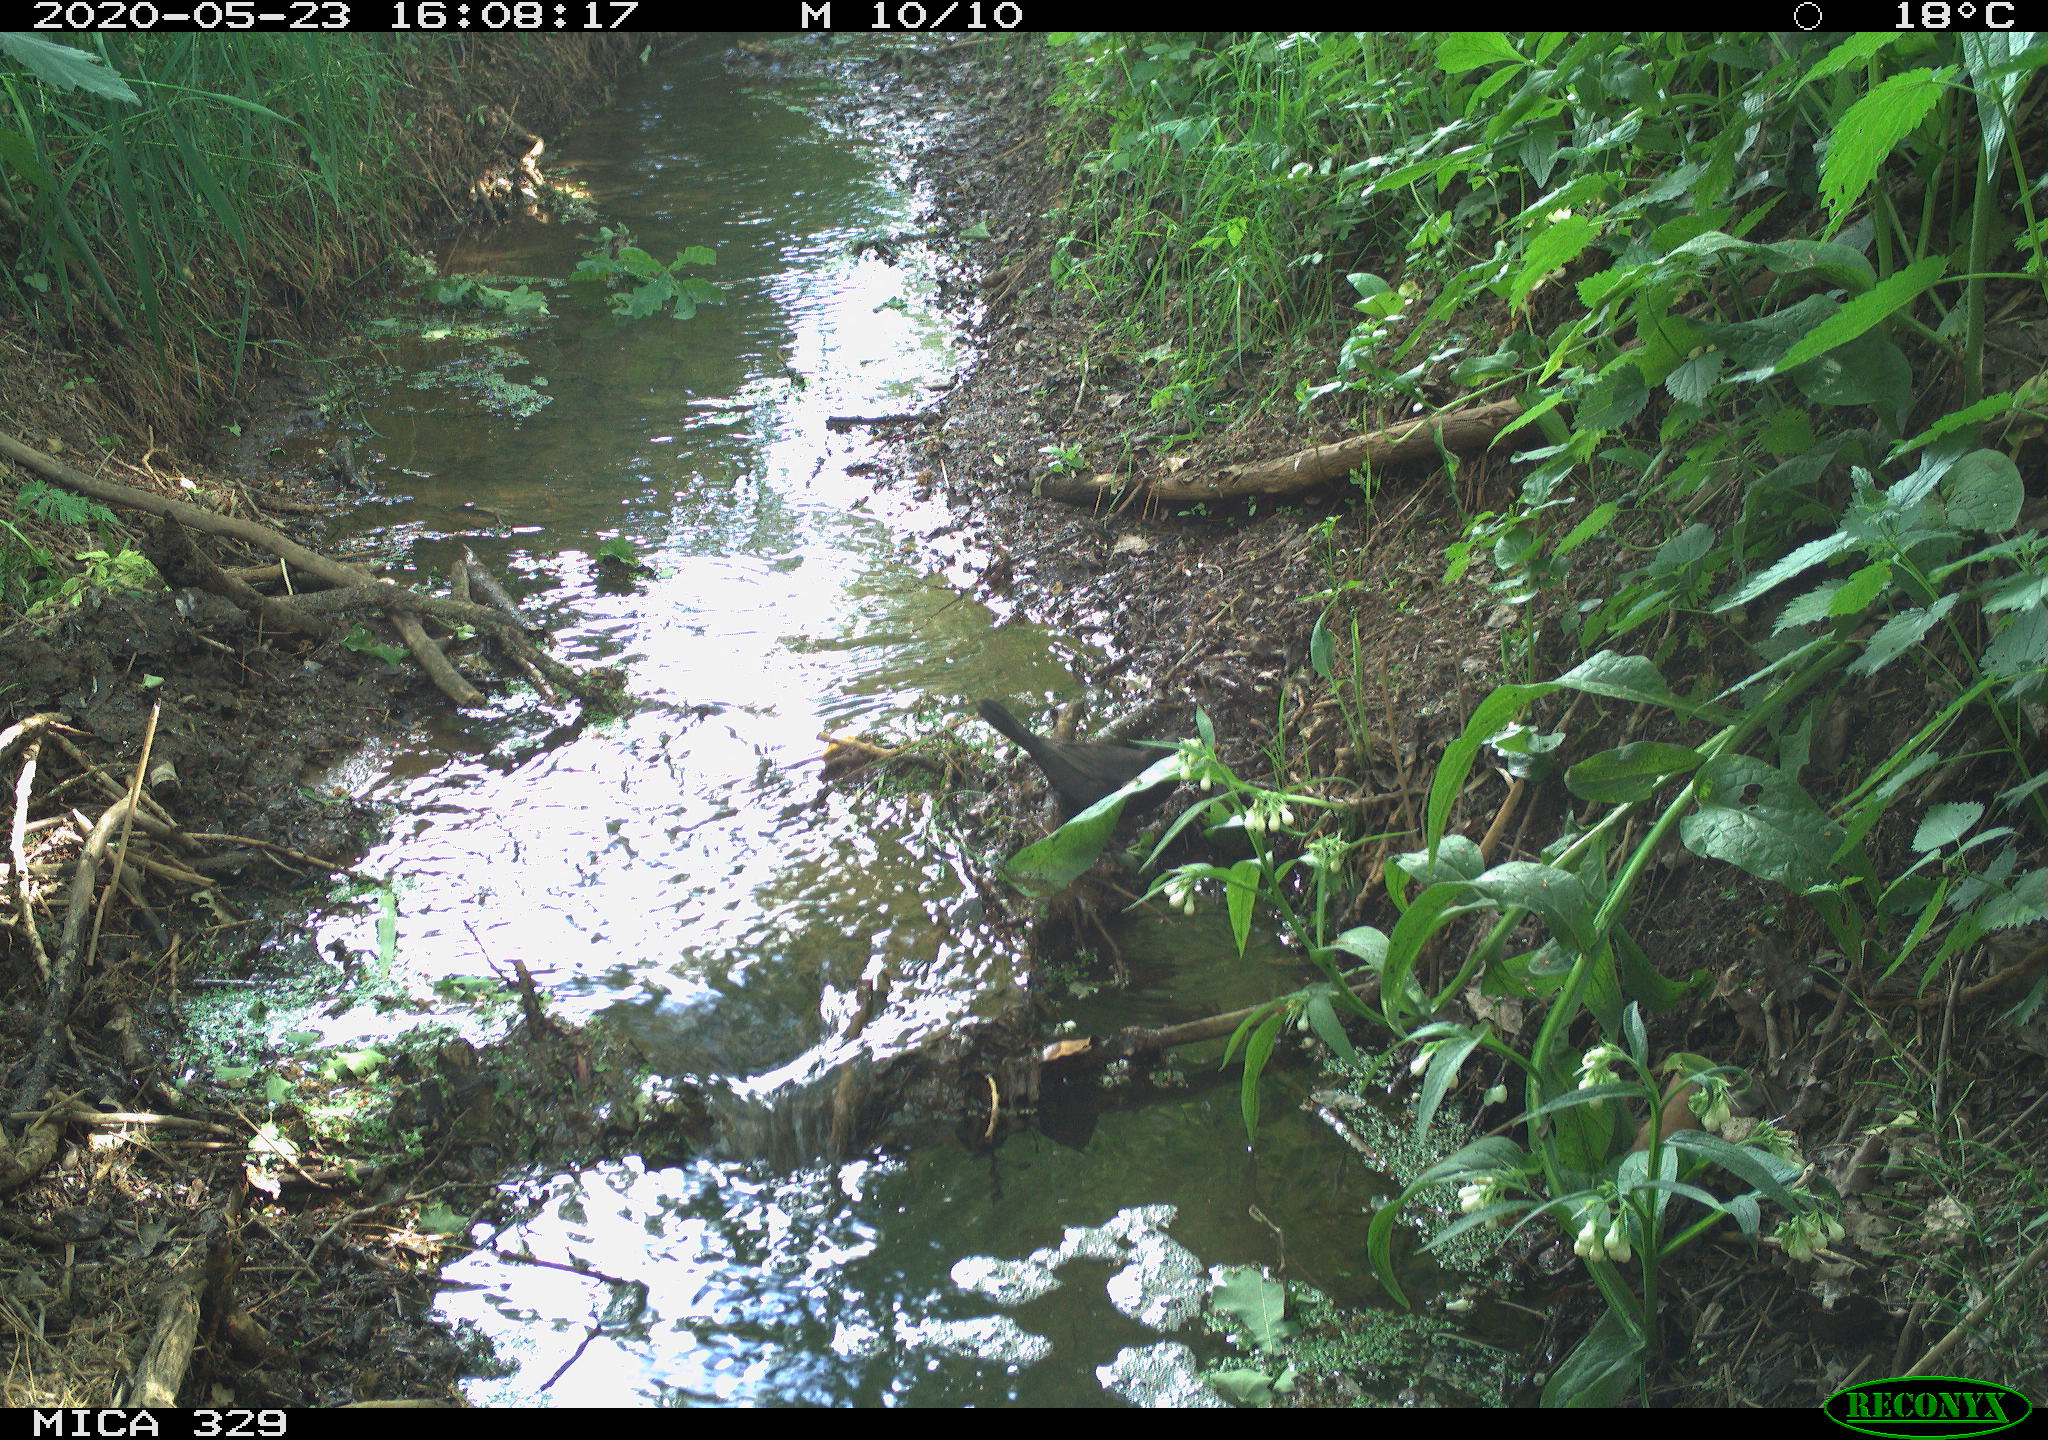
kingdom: Animalia
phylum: Chordata
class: Aves
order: Passeriformes
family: Turdidae
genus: Turdus
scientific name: Turdus merula
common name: Common blackbird
